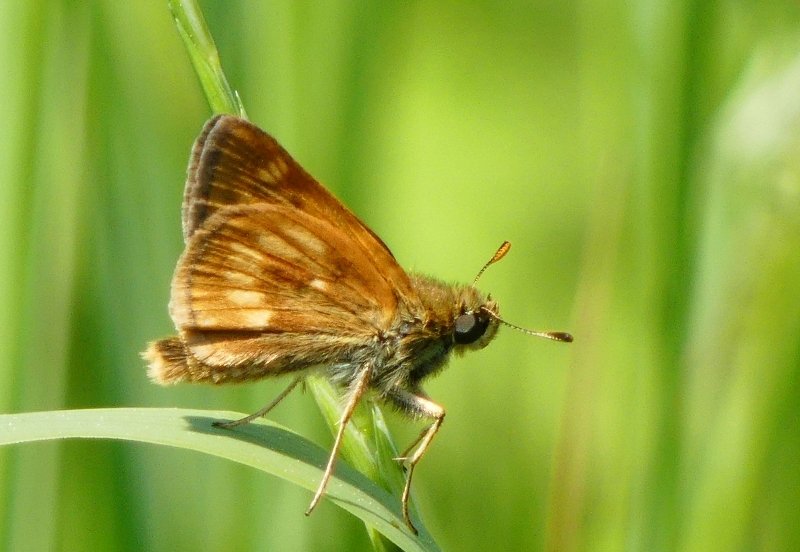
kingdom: Animalia
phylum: Arthropoda
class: Insecta
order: Lepidoptera
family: Hesperiidae
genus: Polites
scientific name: Polites
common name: Long Dash Skipper
